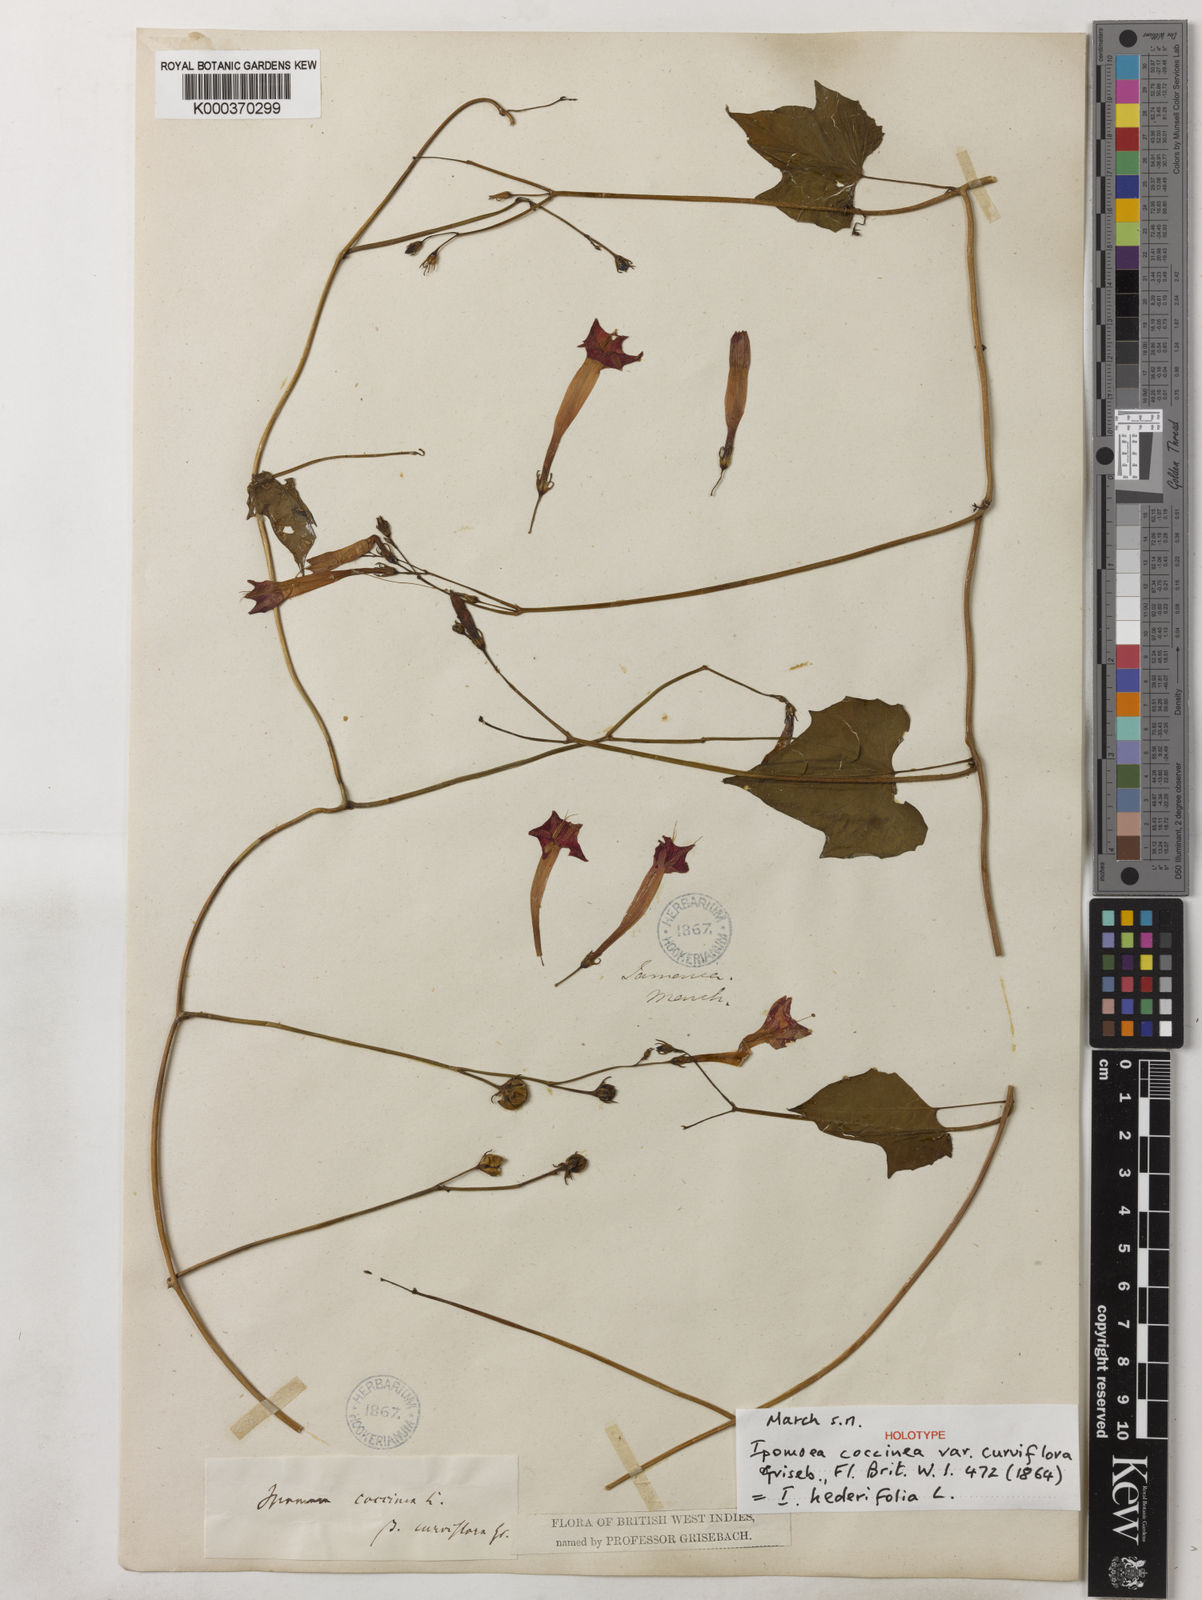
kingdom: Plantae
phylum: Tracheophyta
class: Magnoliopsida
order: Solanales
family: Convolvulaceae
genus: Ipomoea
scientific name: Ipomoea hederifolia
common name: Ivy-leaf morning-glory
